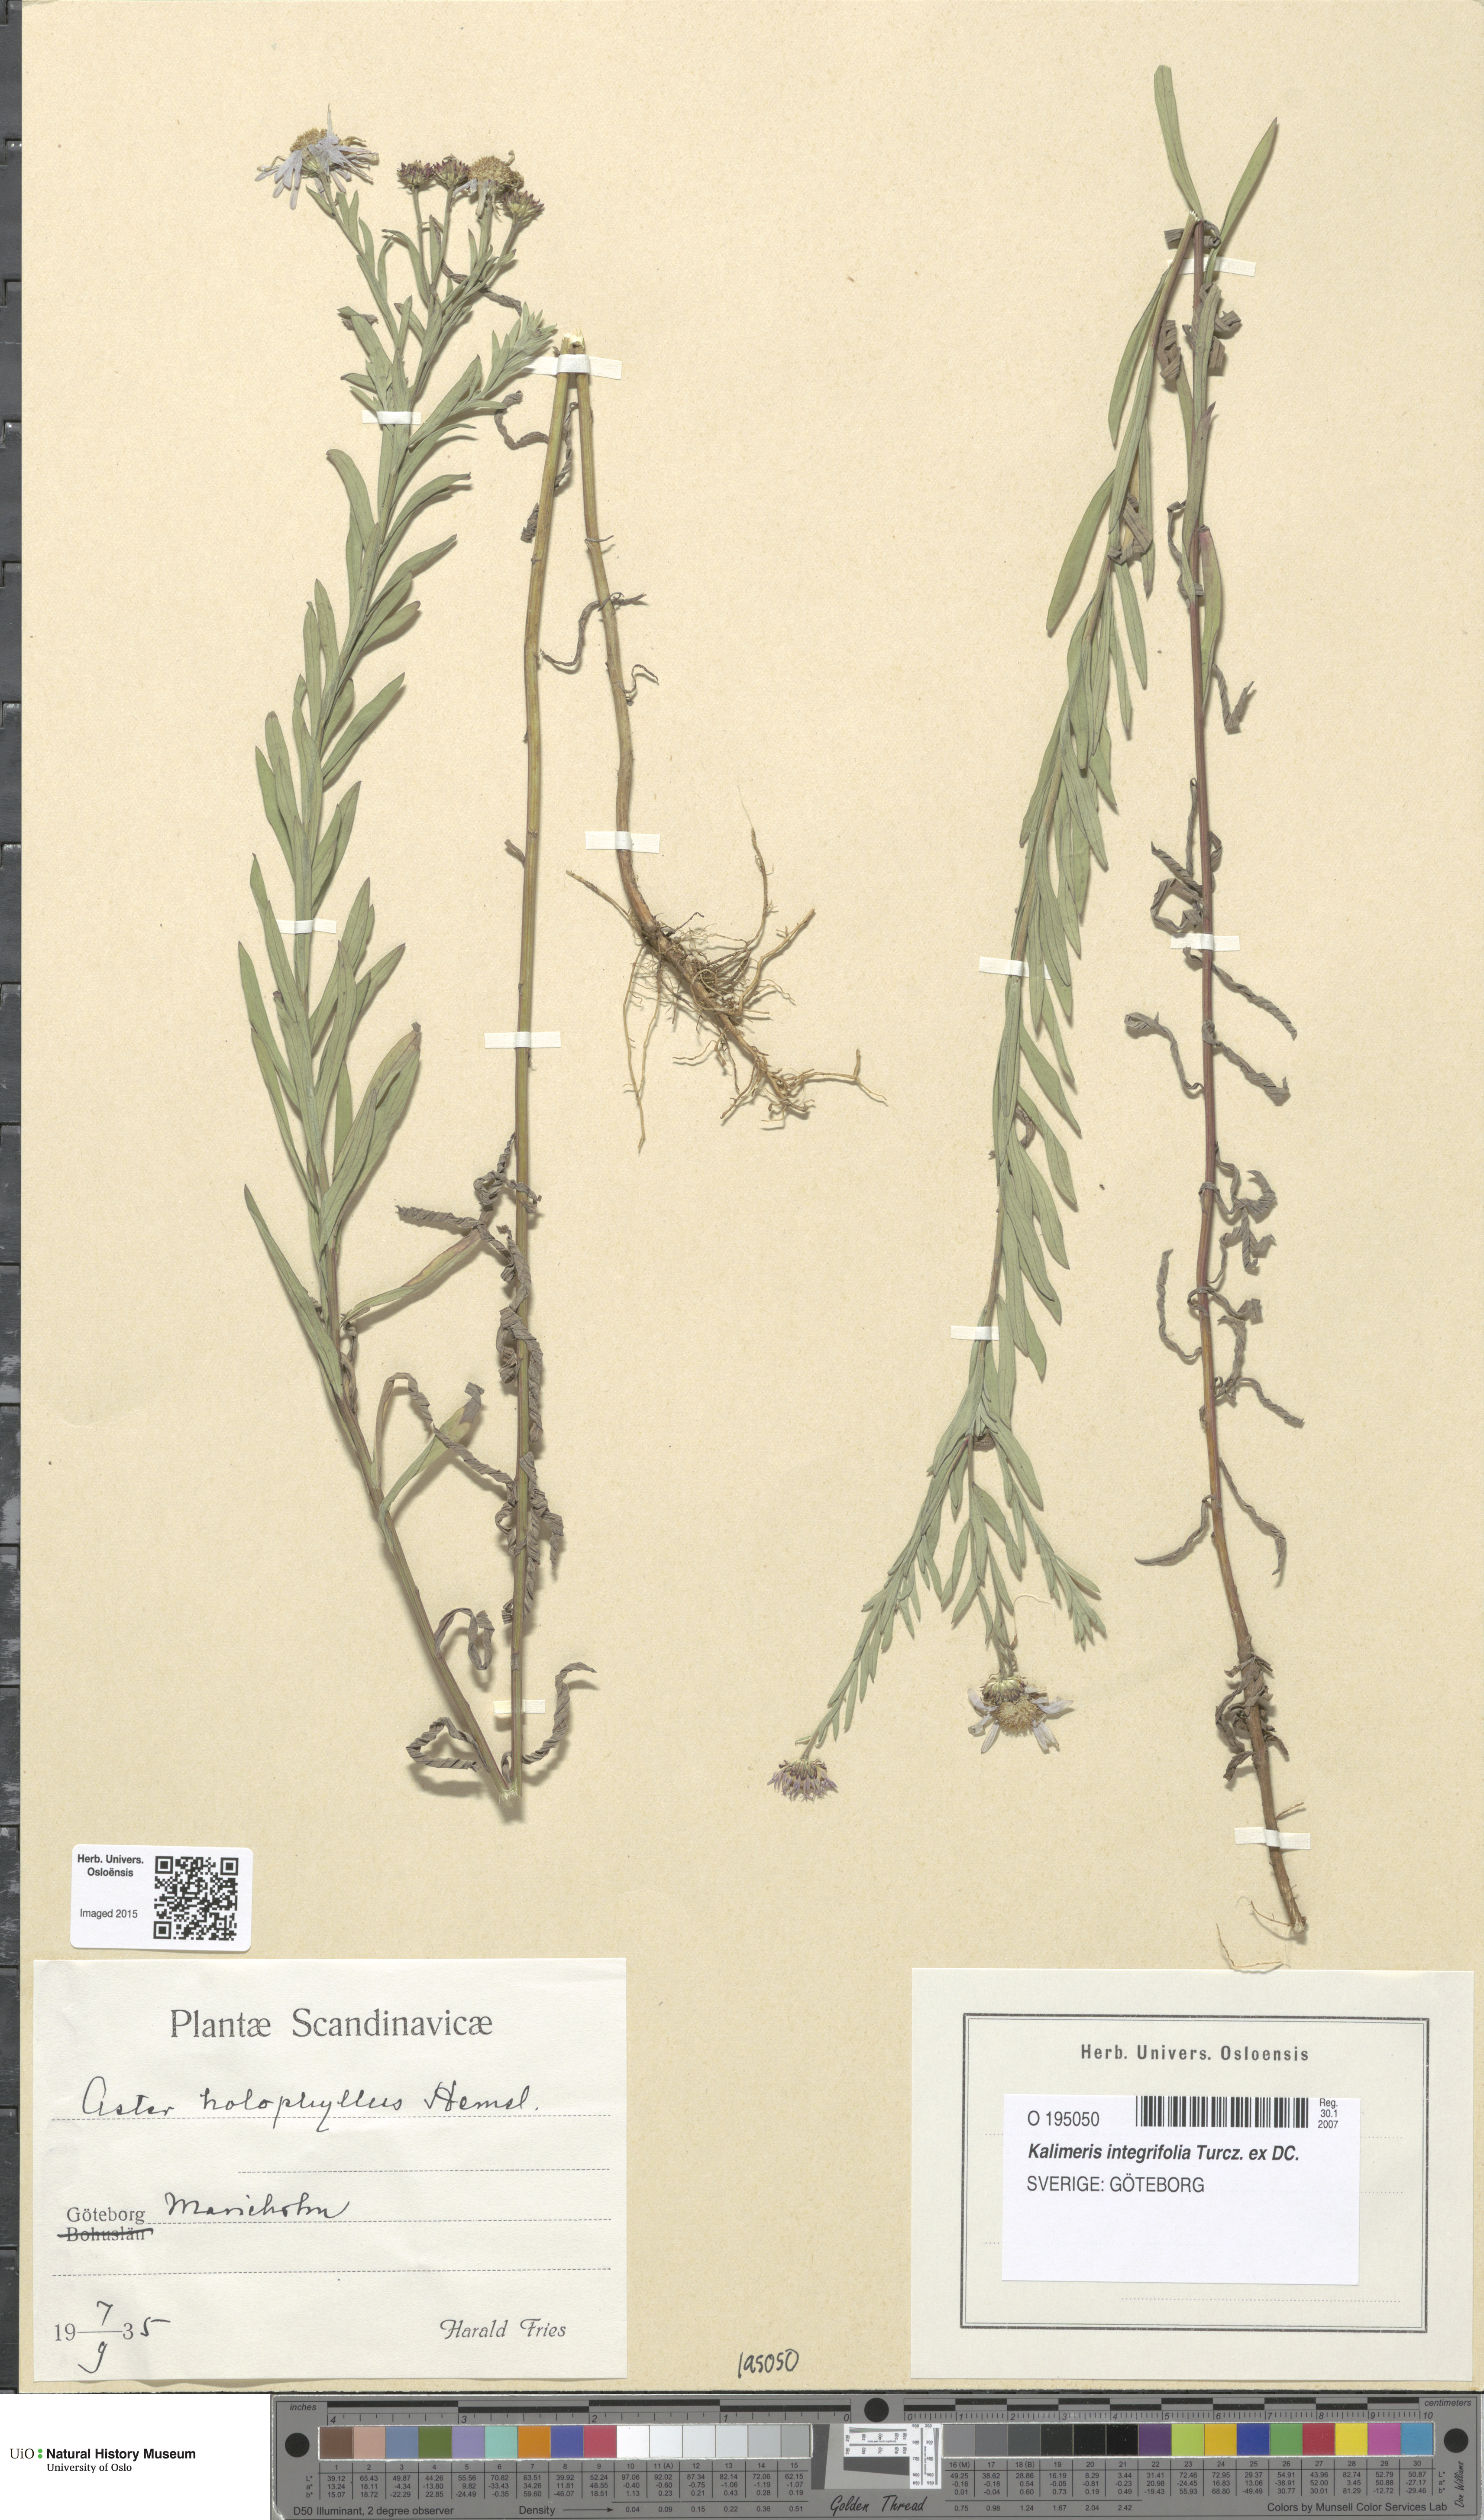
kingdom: Plantae
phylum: Tracheophyta
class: Magnoliopsida
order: Asterales
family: Asteraceae
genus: Kalimeris
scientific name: Kalimeris integrifolia
